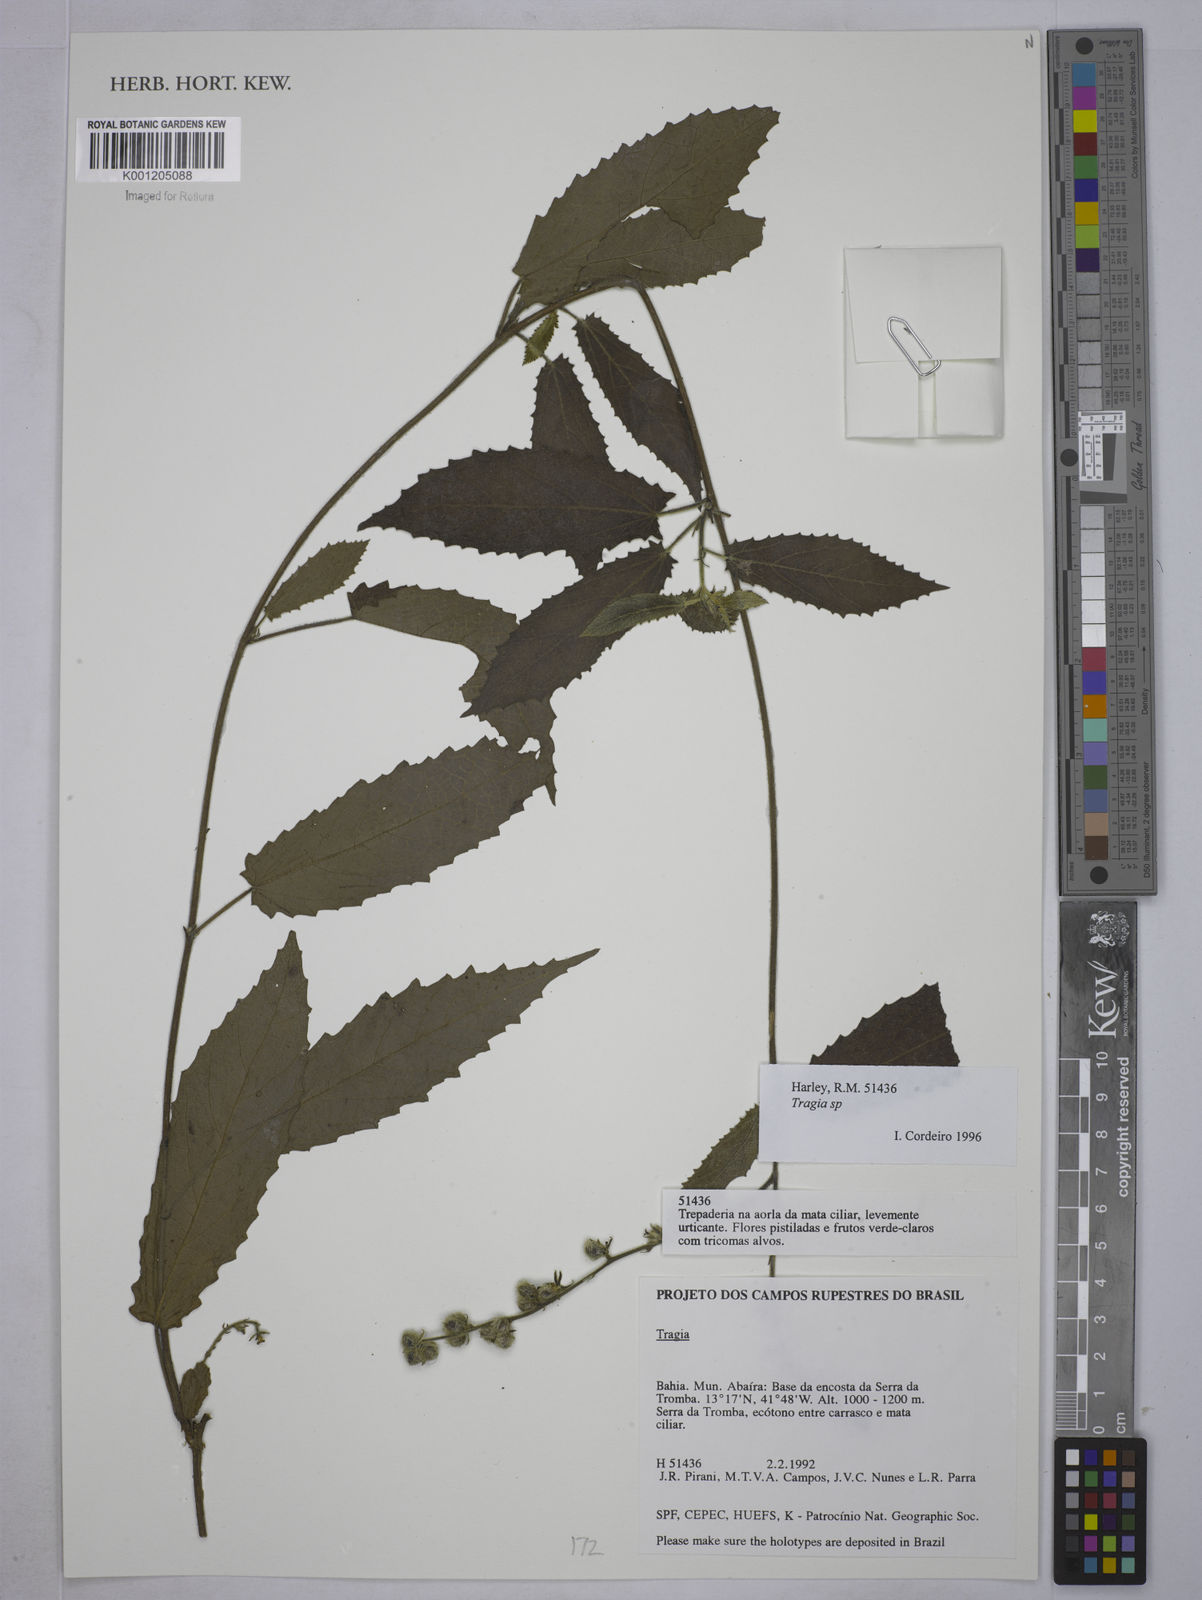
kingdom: Plantae
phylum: Tracheophyta
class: Magnoliopsida
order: Malpighiales
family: Euphorbiaceae
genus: Tragia
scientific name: Tragia
